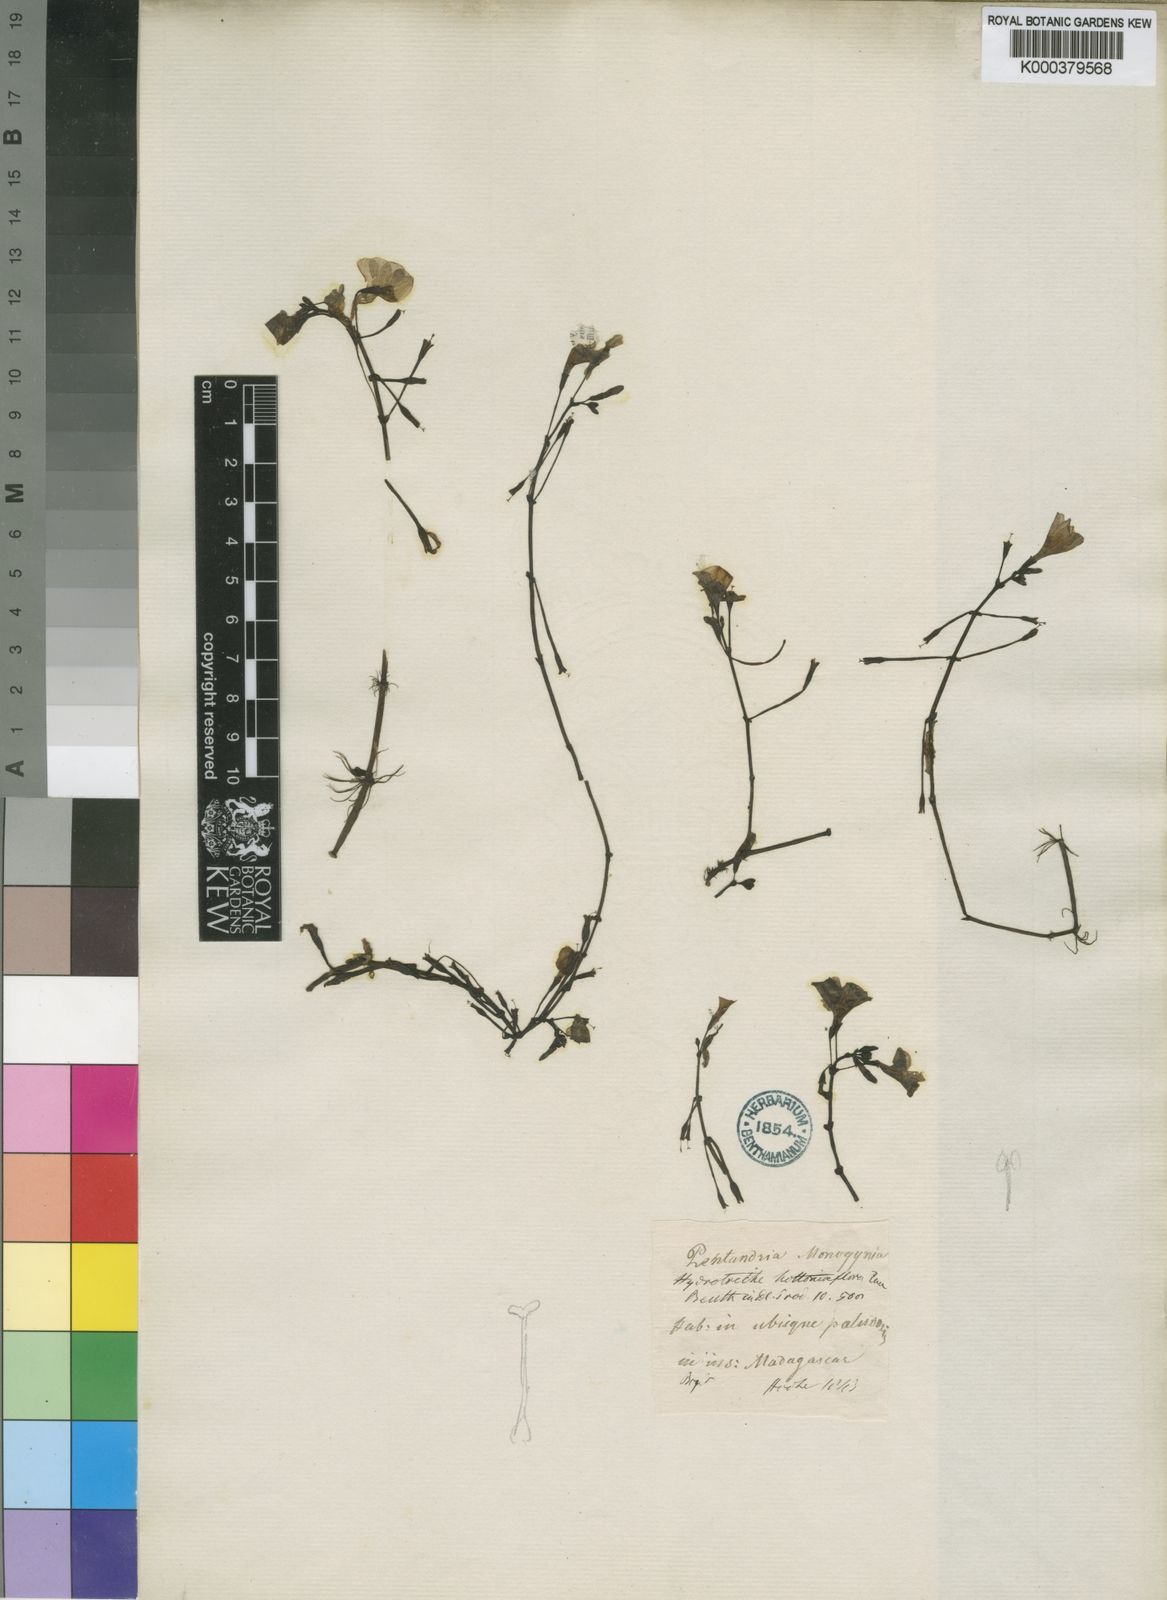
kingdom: Plantae
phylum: Tracheophyta
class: Magnoliopsida
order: Lamiales
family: Plantaginaceae
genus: Hydrotriche
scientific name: Hydrotriche
